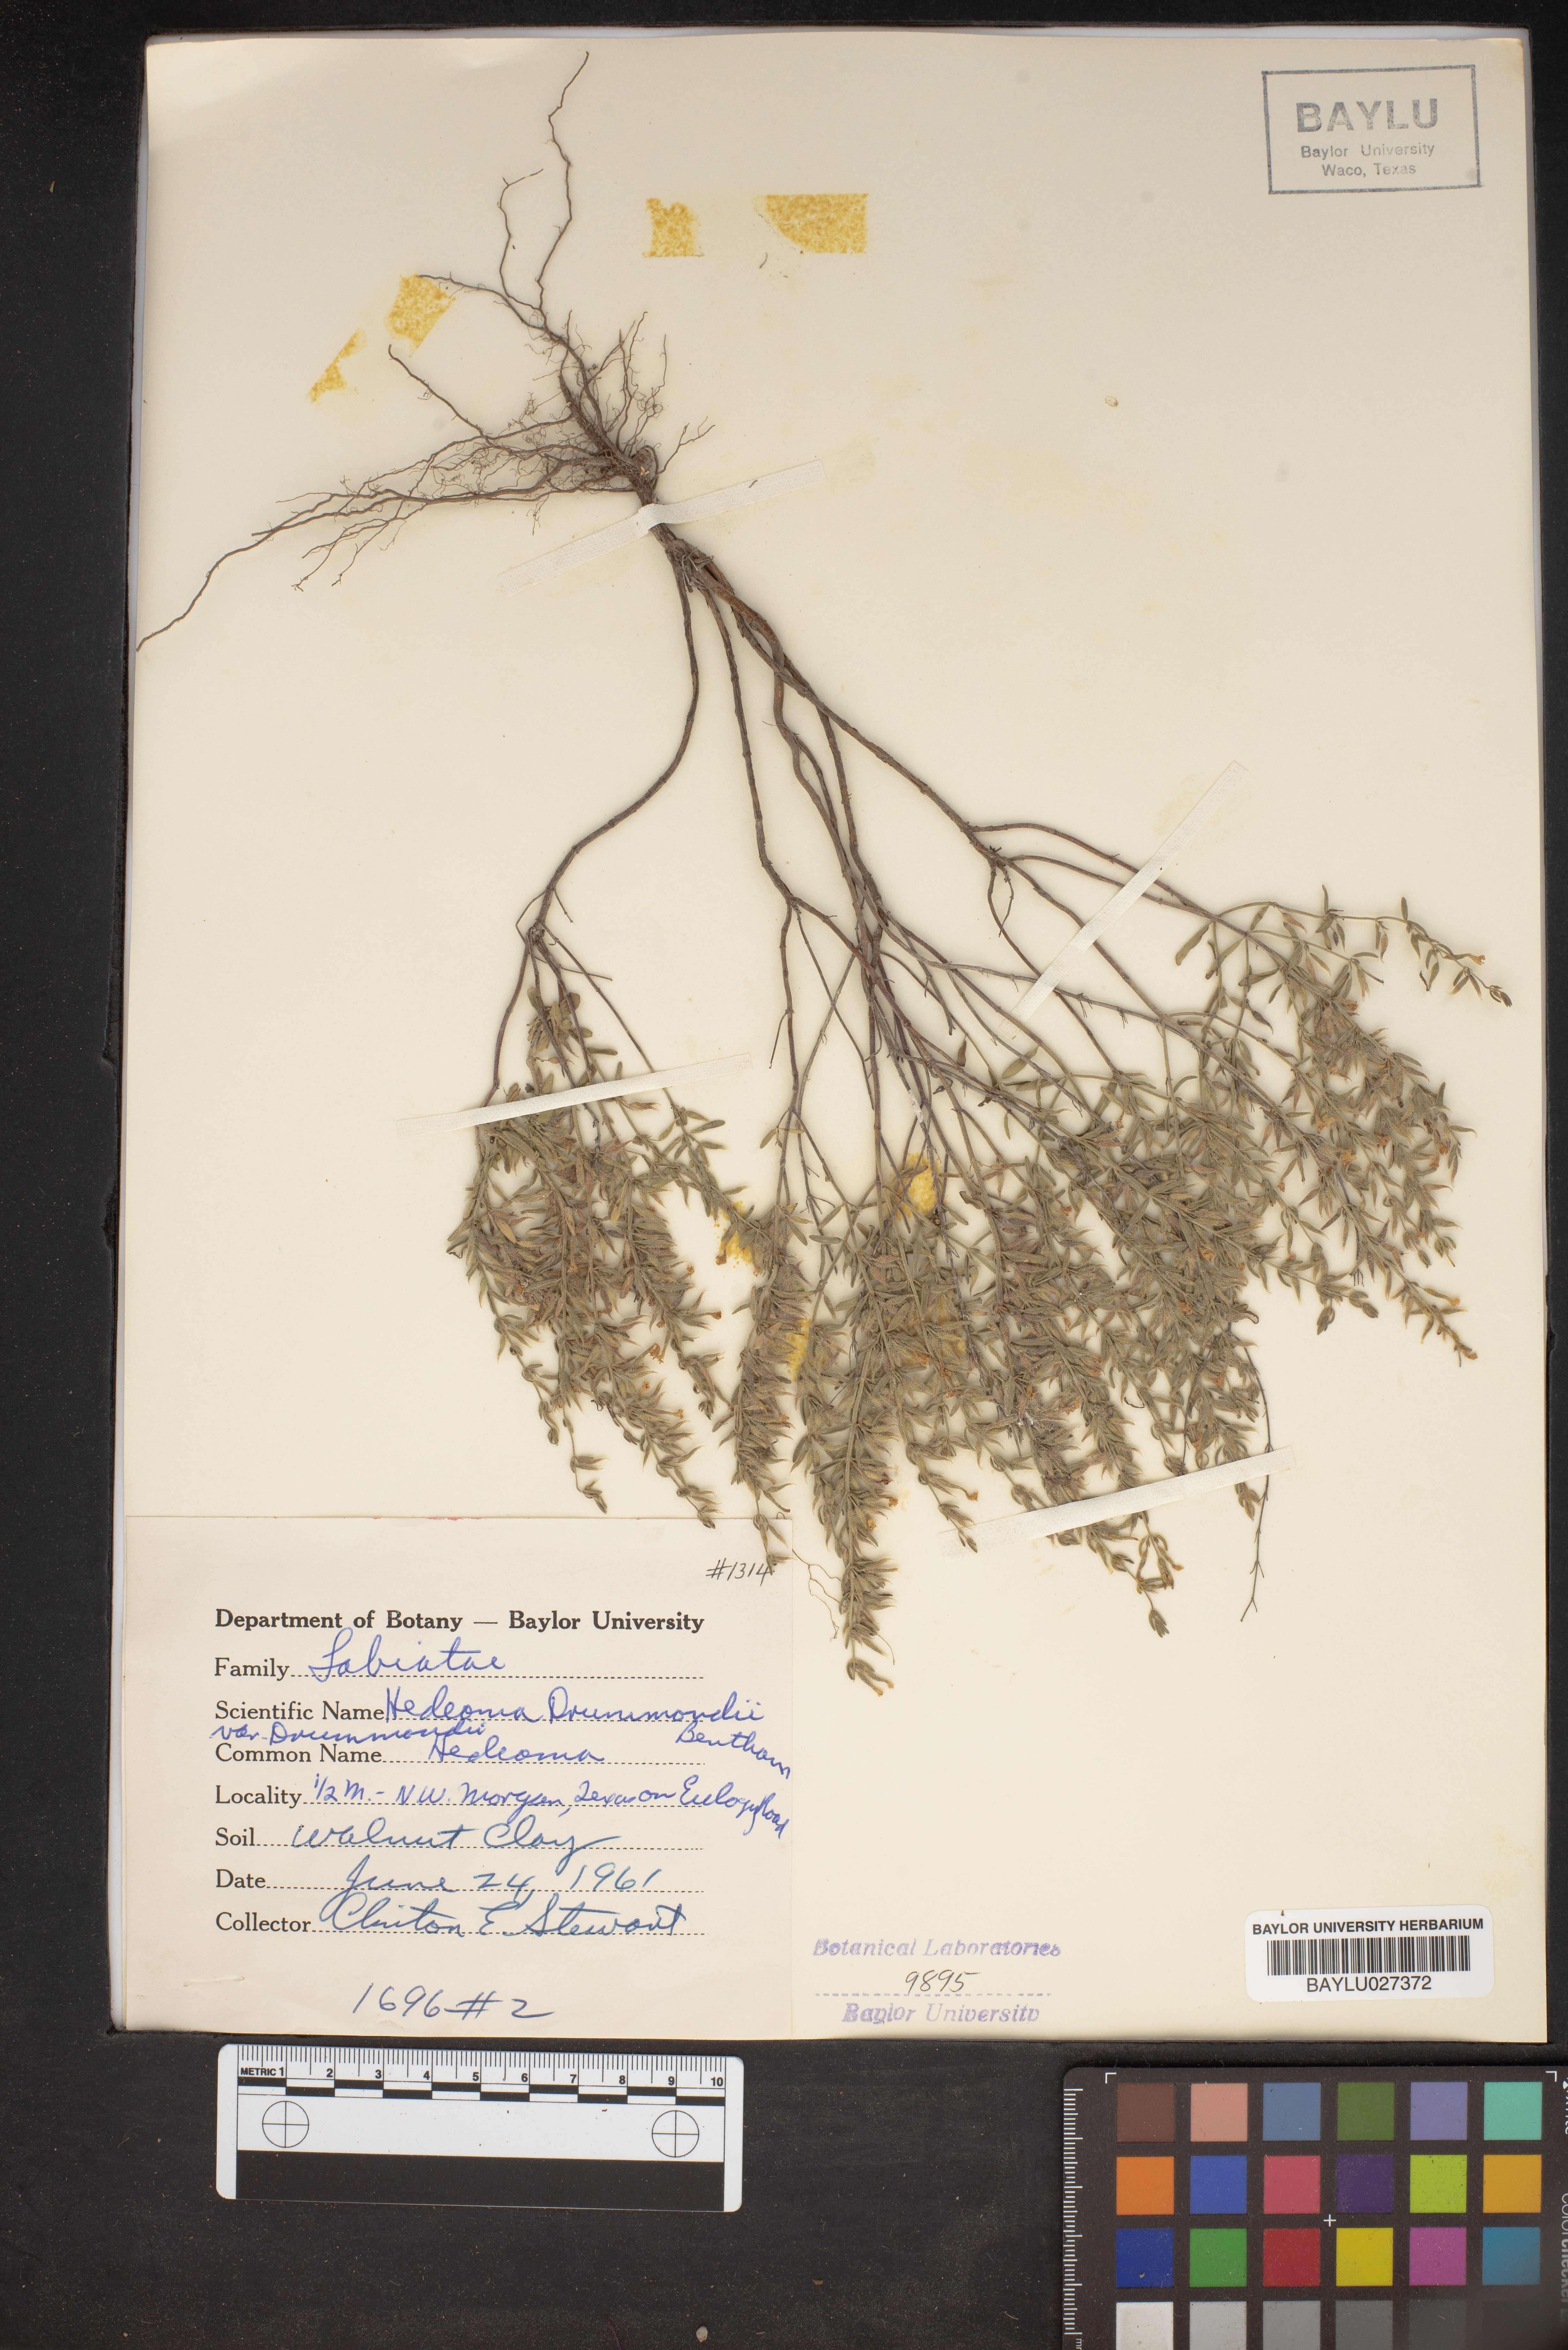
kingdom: Plantae
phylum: Tracheophyta
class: Magnoliopsida
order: Lamiales
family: Lamiaceae
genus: Hedeoma
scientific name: Hedeoma drummondii
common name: New mexico pennyroyal
